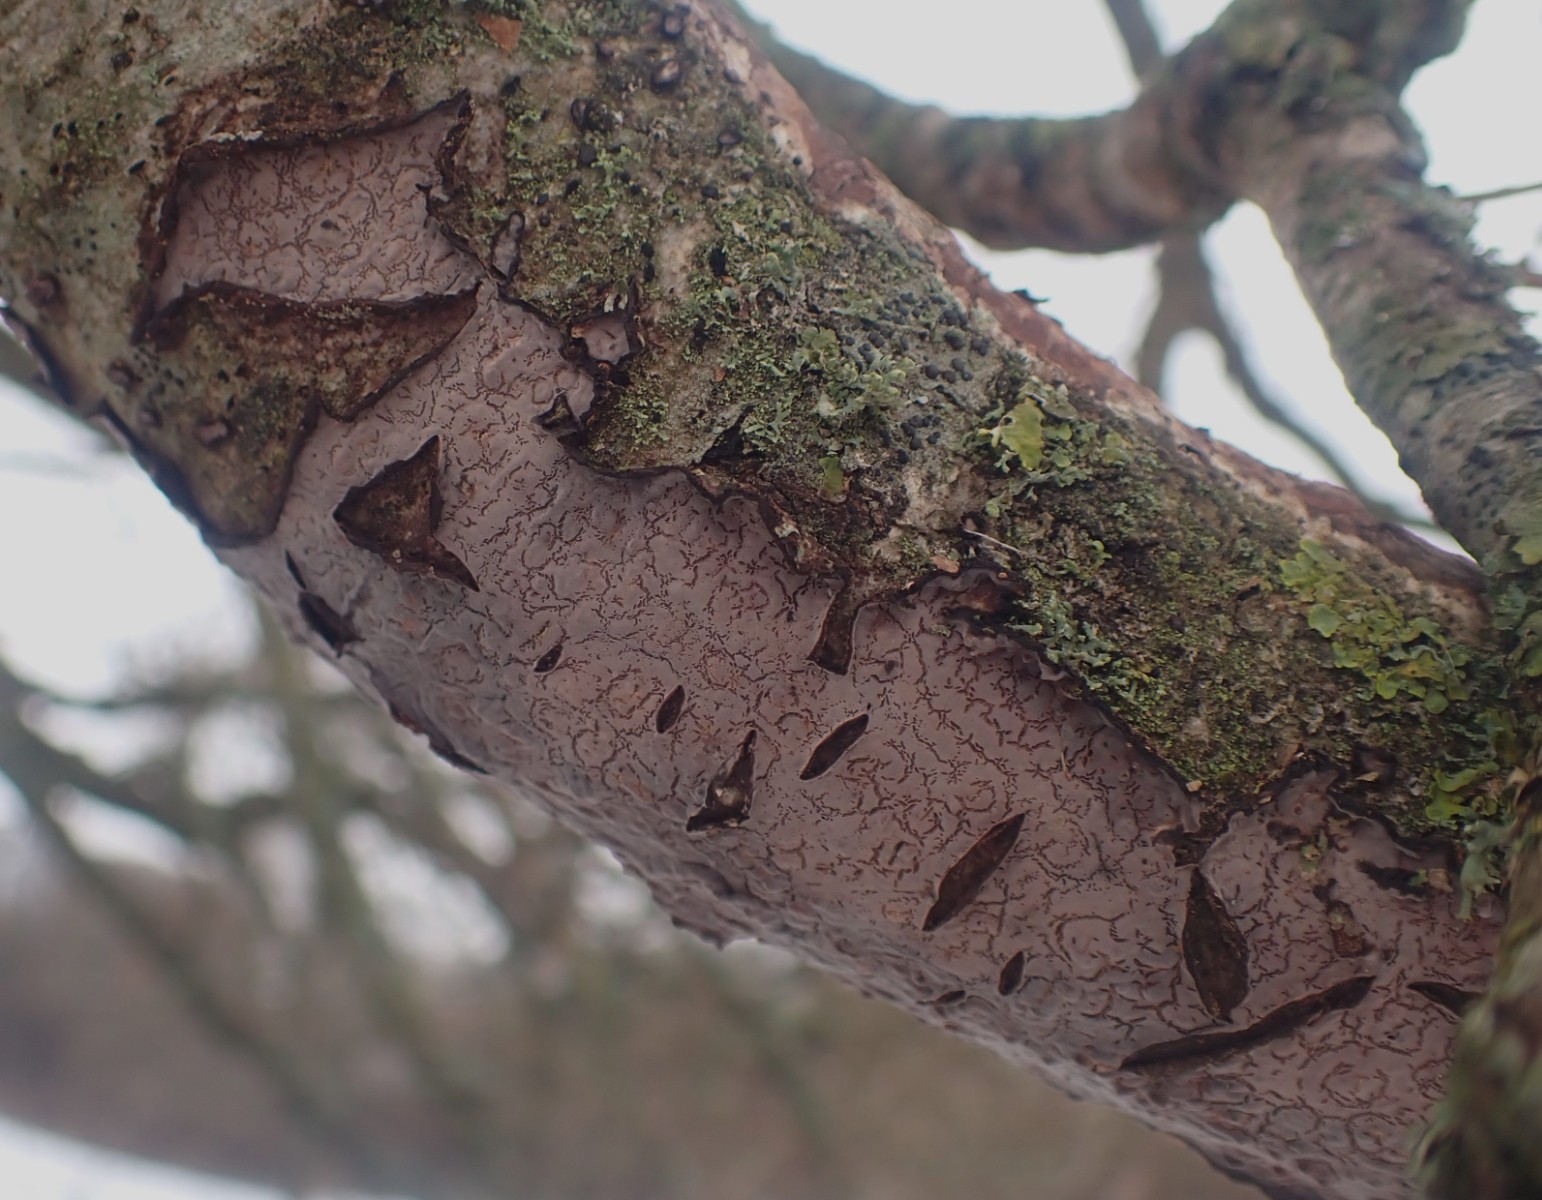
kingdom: Fungi
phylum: Basidiomycota
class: Agaricomycetes
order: Russulales
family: Peniophoraceae
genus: Peniophora
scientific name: Peniophora quercina
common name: ege-voksskind
